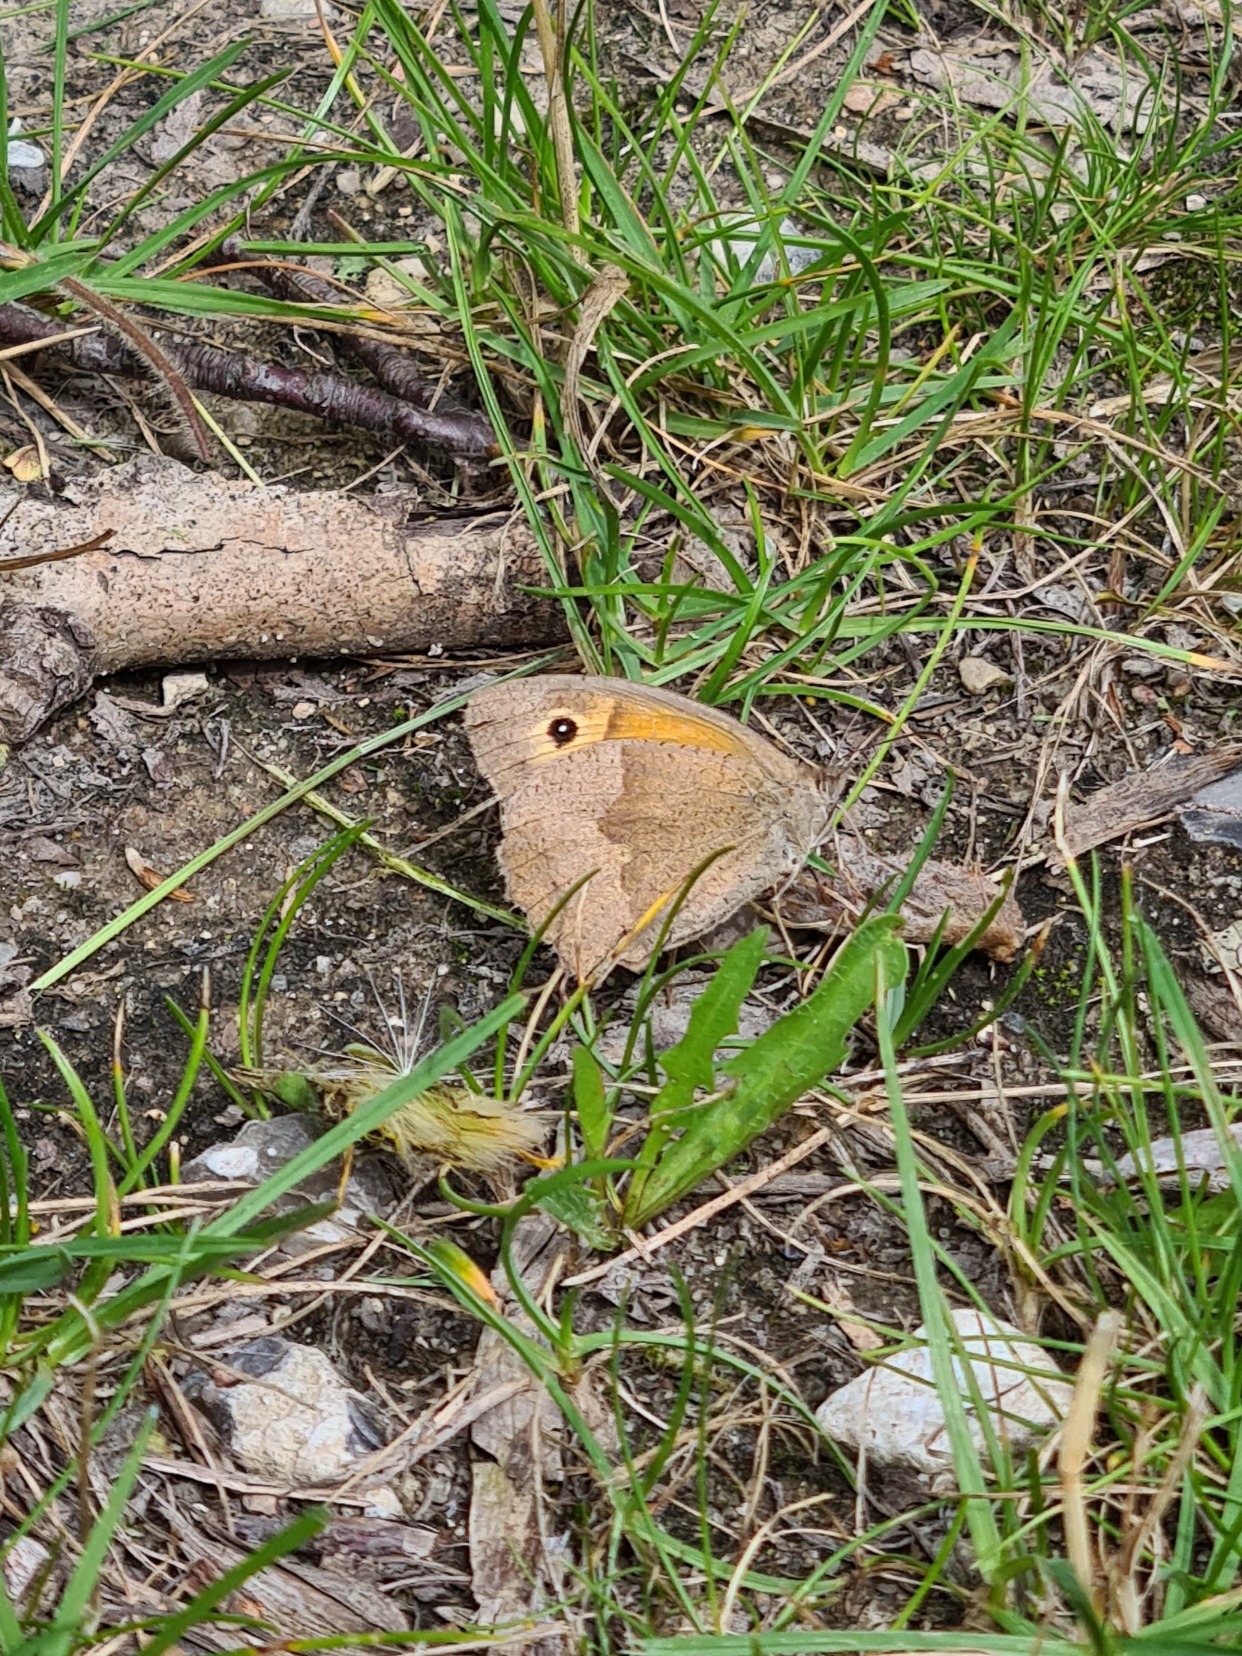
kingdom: Animalia
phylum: Arthropoda
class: Insecta
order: Lepidoptera
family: Nymphalidae
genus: Maniola
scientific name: Maniola jurtina
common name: Græsrandøje
